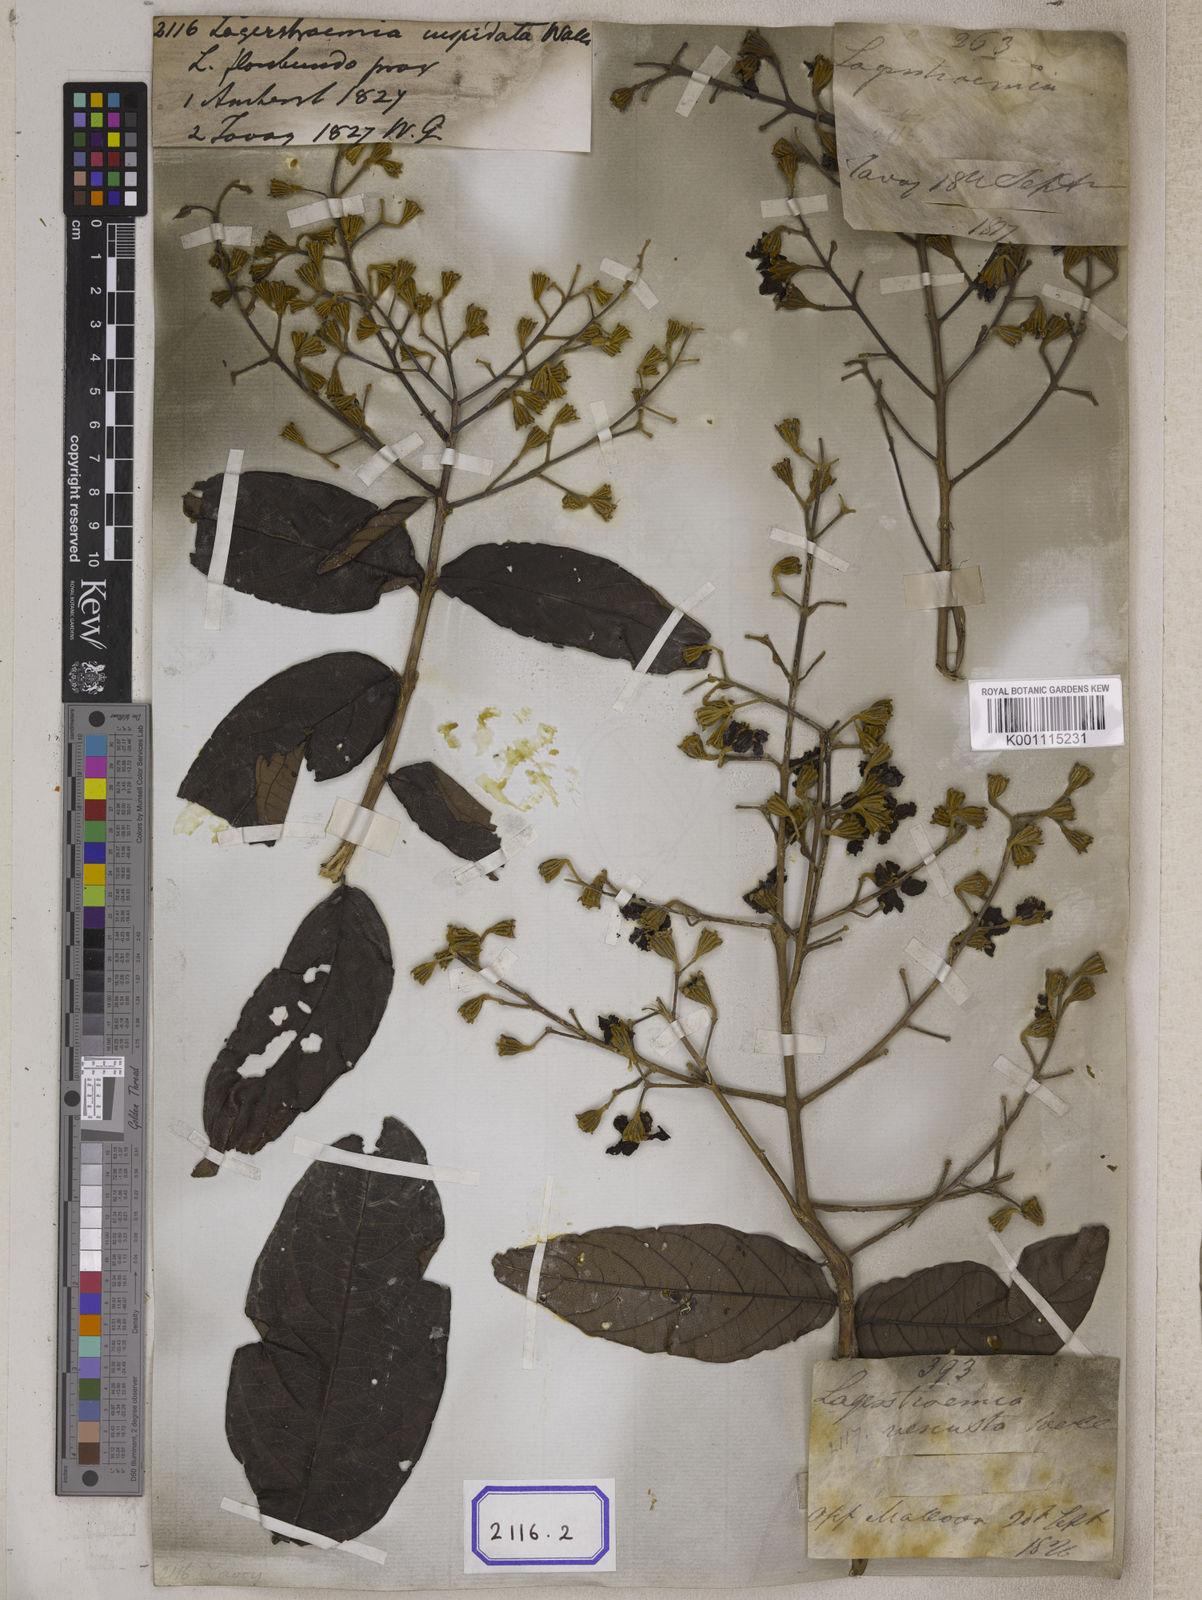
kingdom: Plantae
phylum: Tracheophyta
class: Magnoliopsida
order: Myrtales
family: Lythraceae
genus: Lagerstroemia
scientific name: Lagerstroemia
